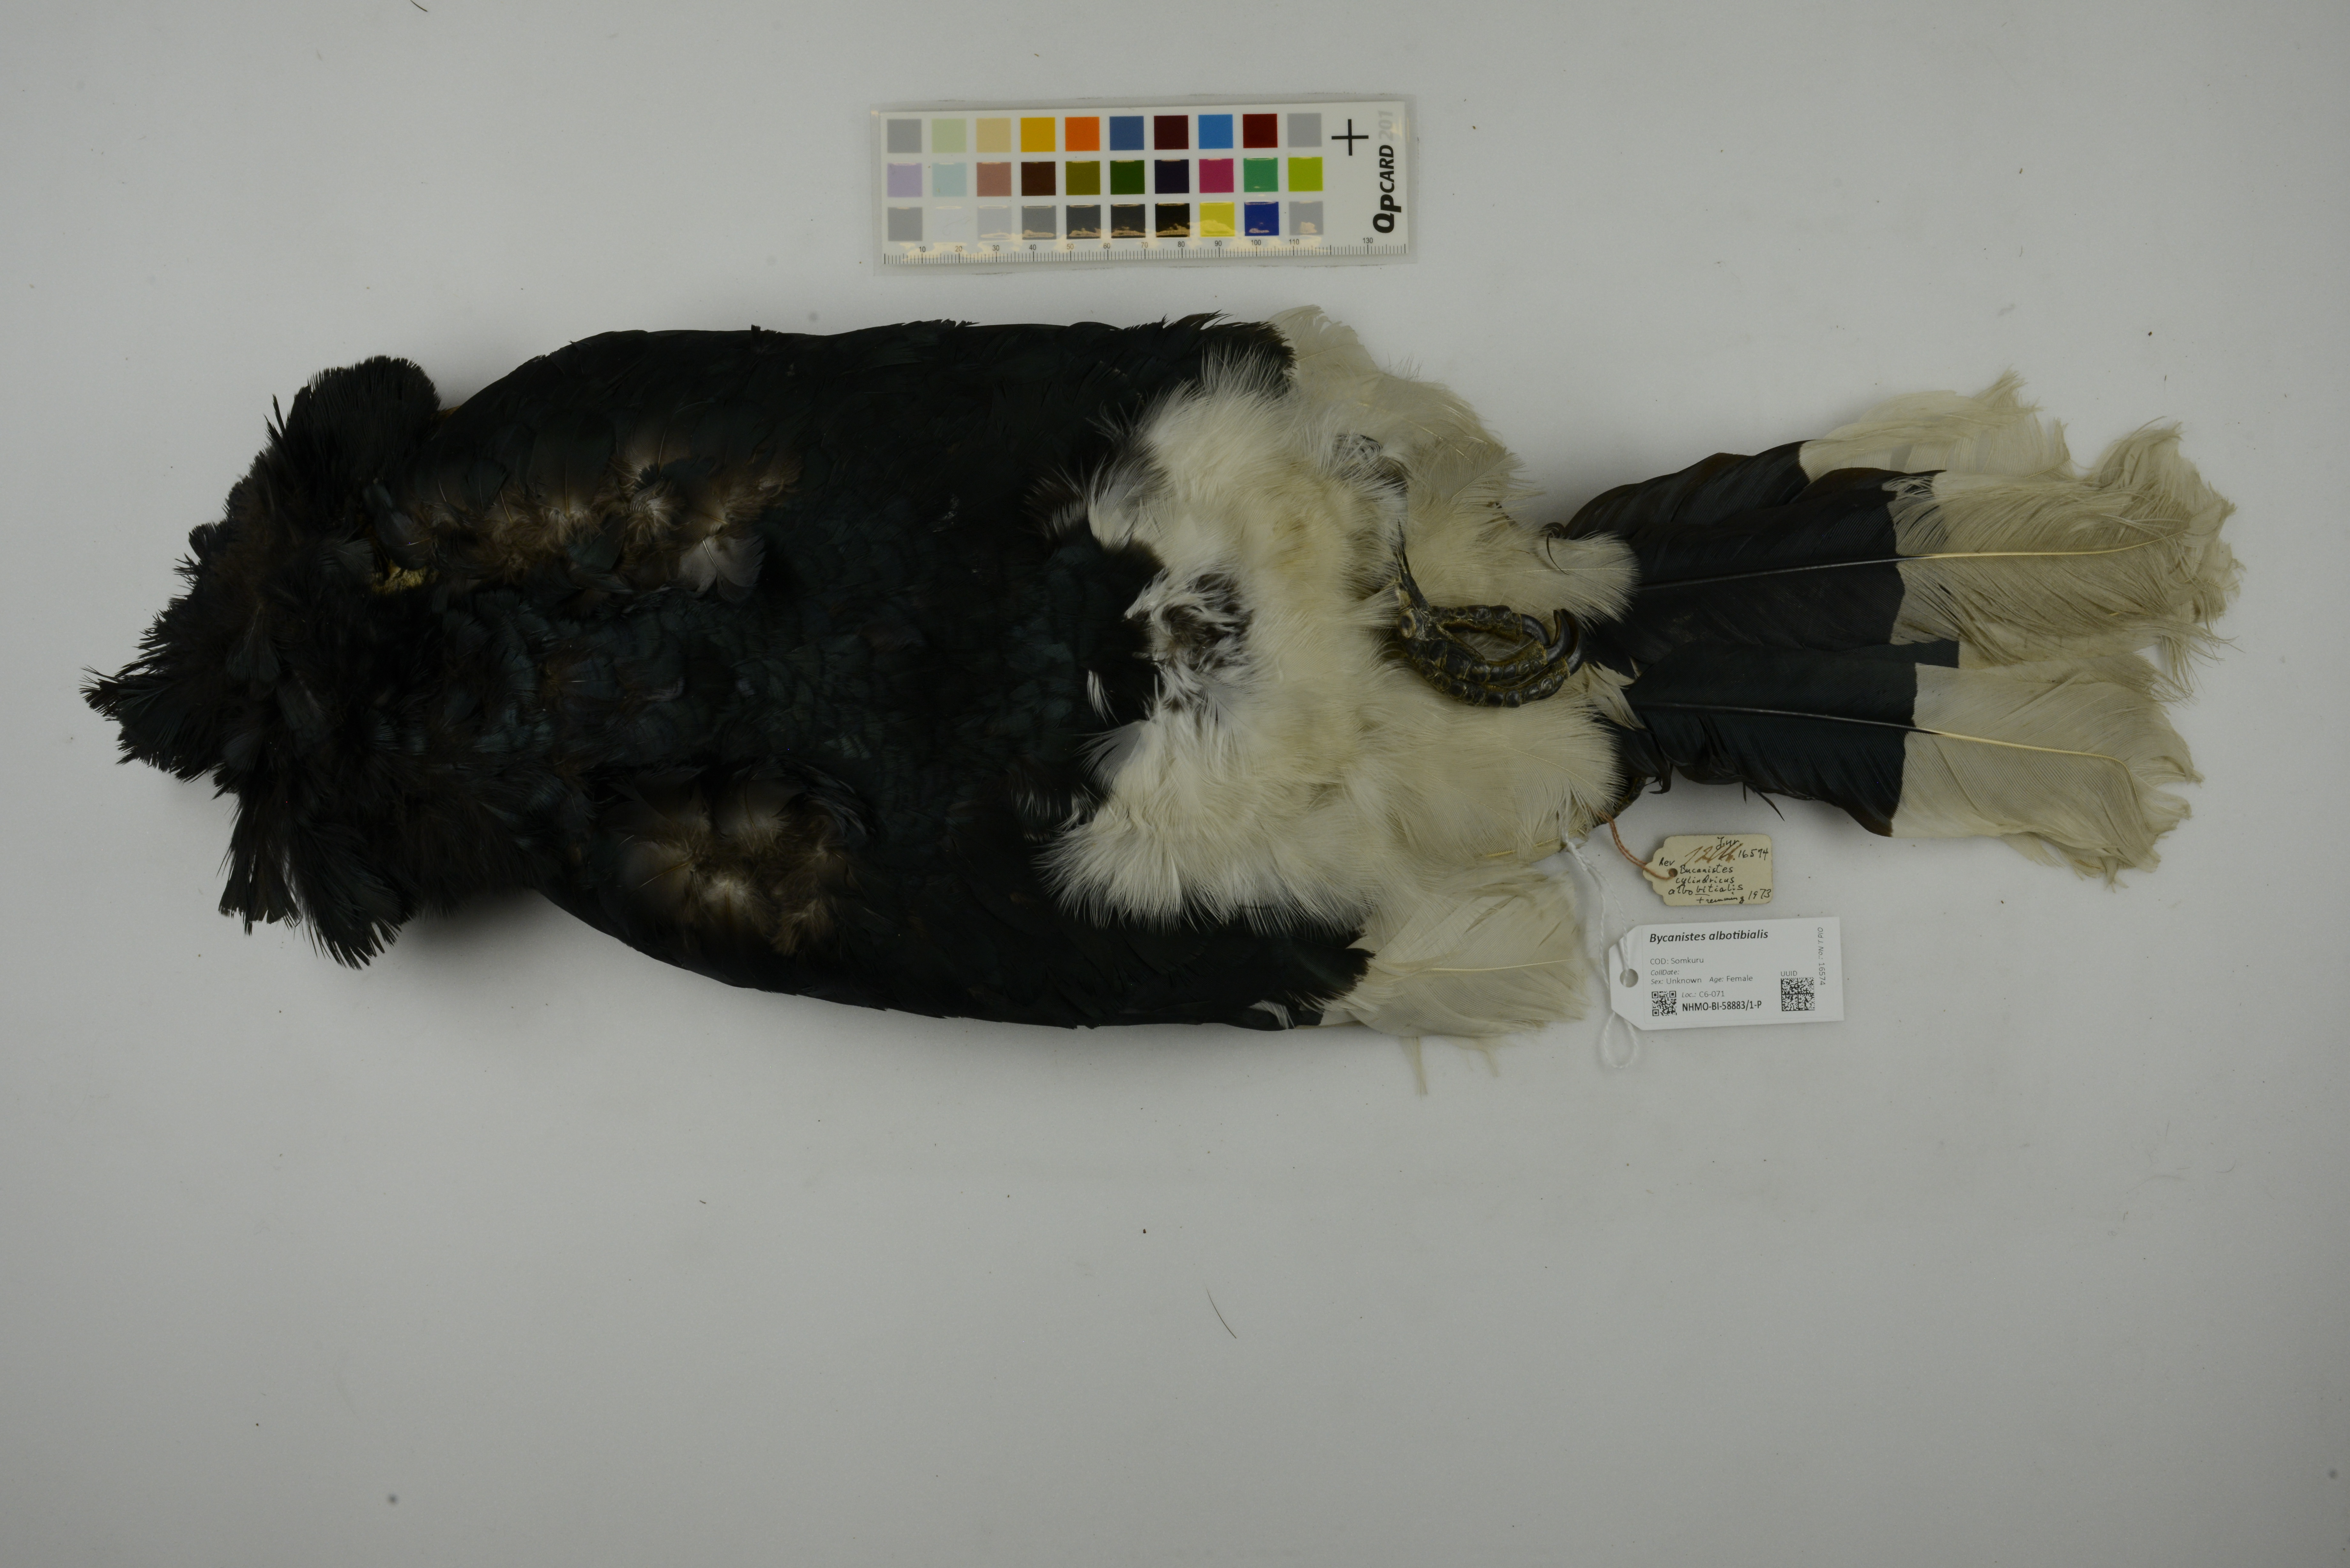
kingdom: Animalia
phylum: Chordata
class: Aves
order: Bucerotiformes
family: Bucerotidae
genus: Bycanistes
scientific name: Bycanistes albotibialis
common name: White-thighed hornbill
